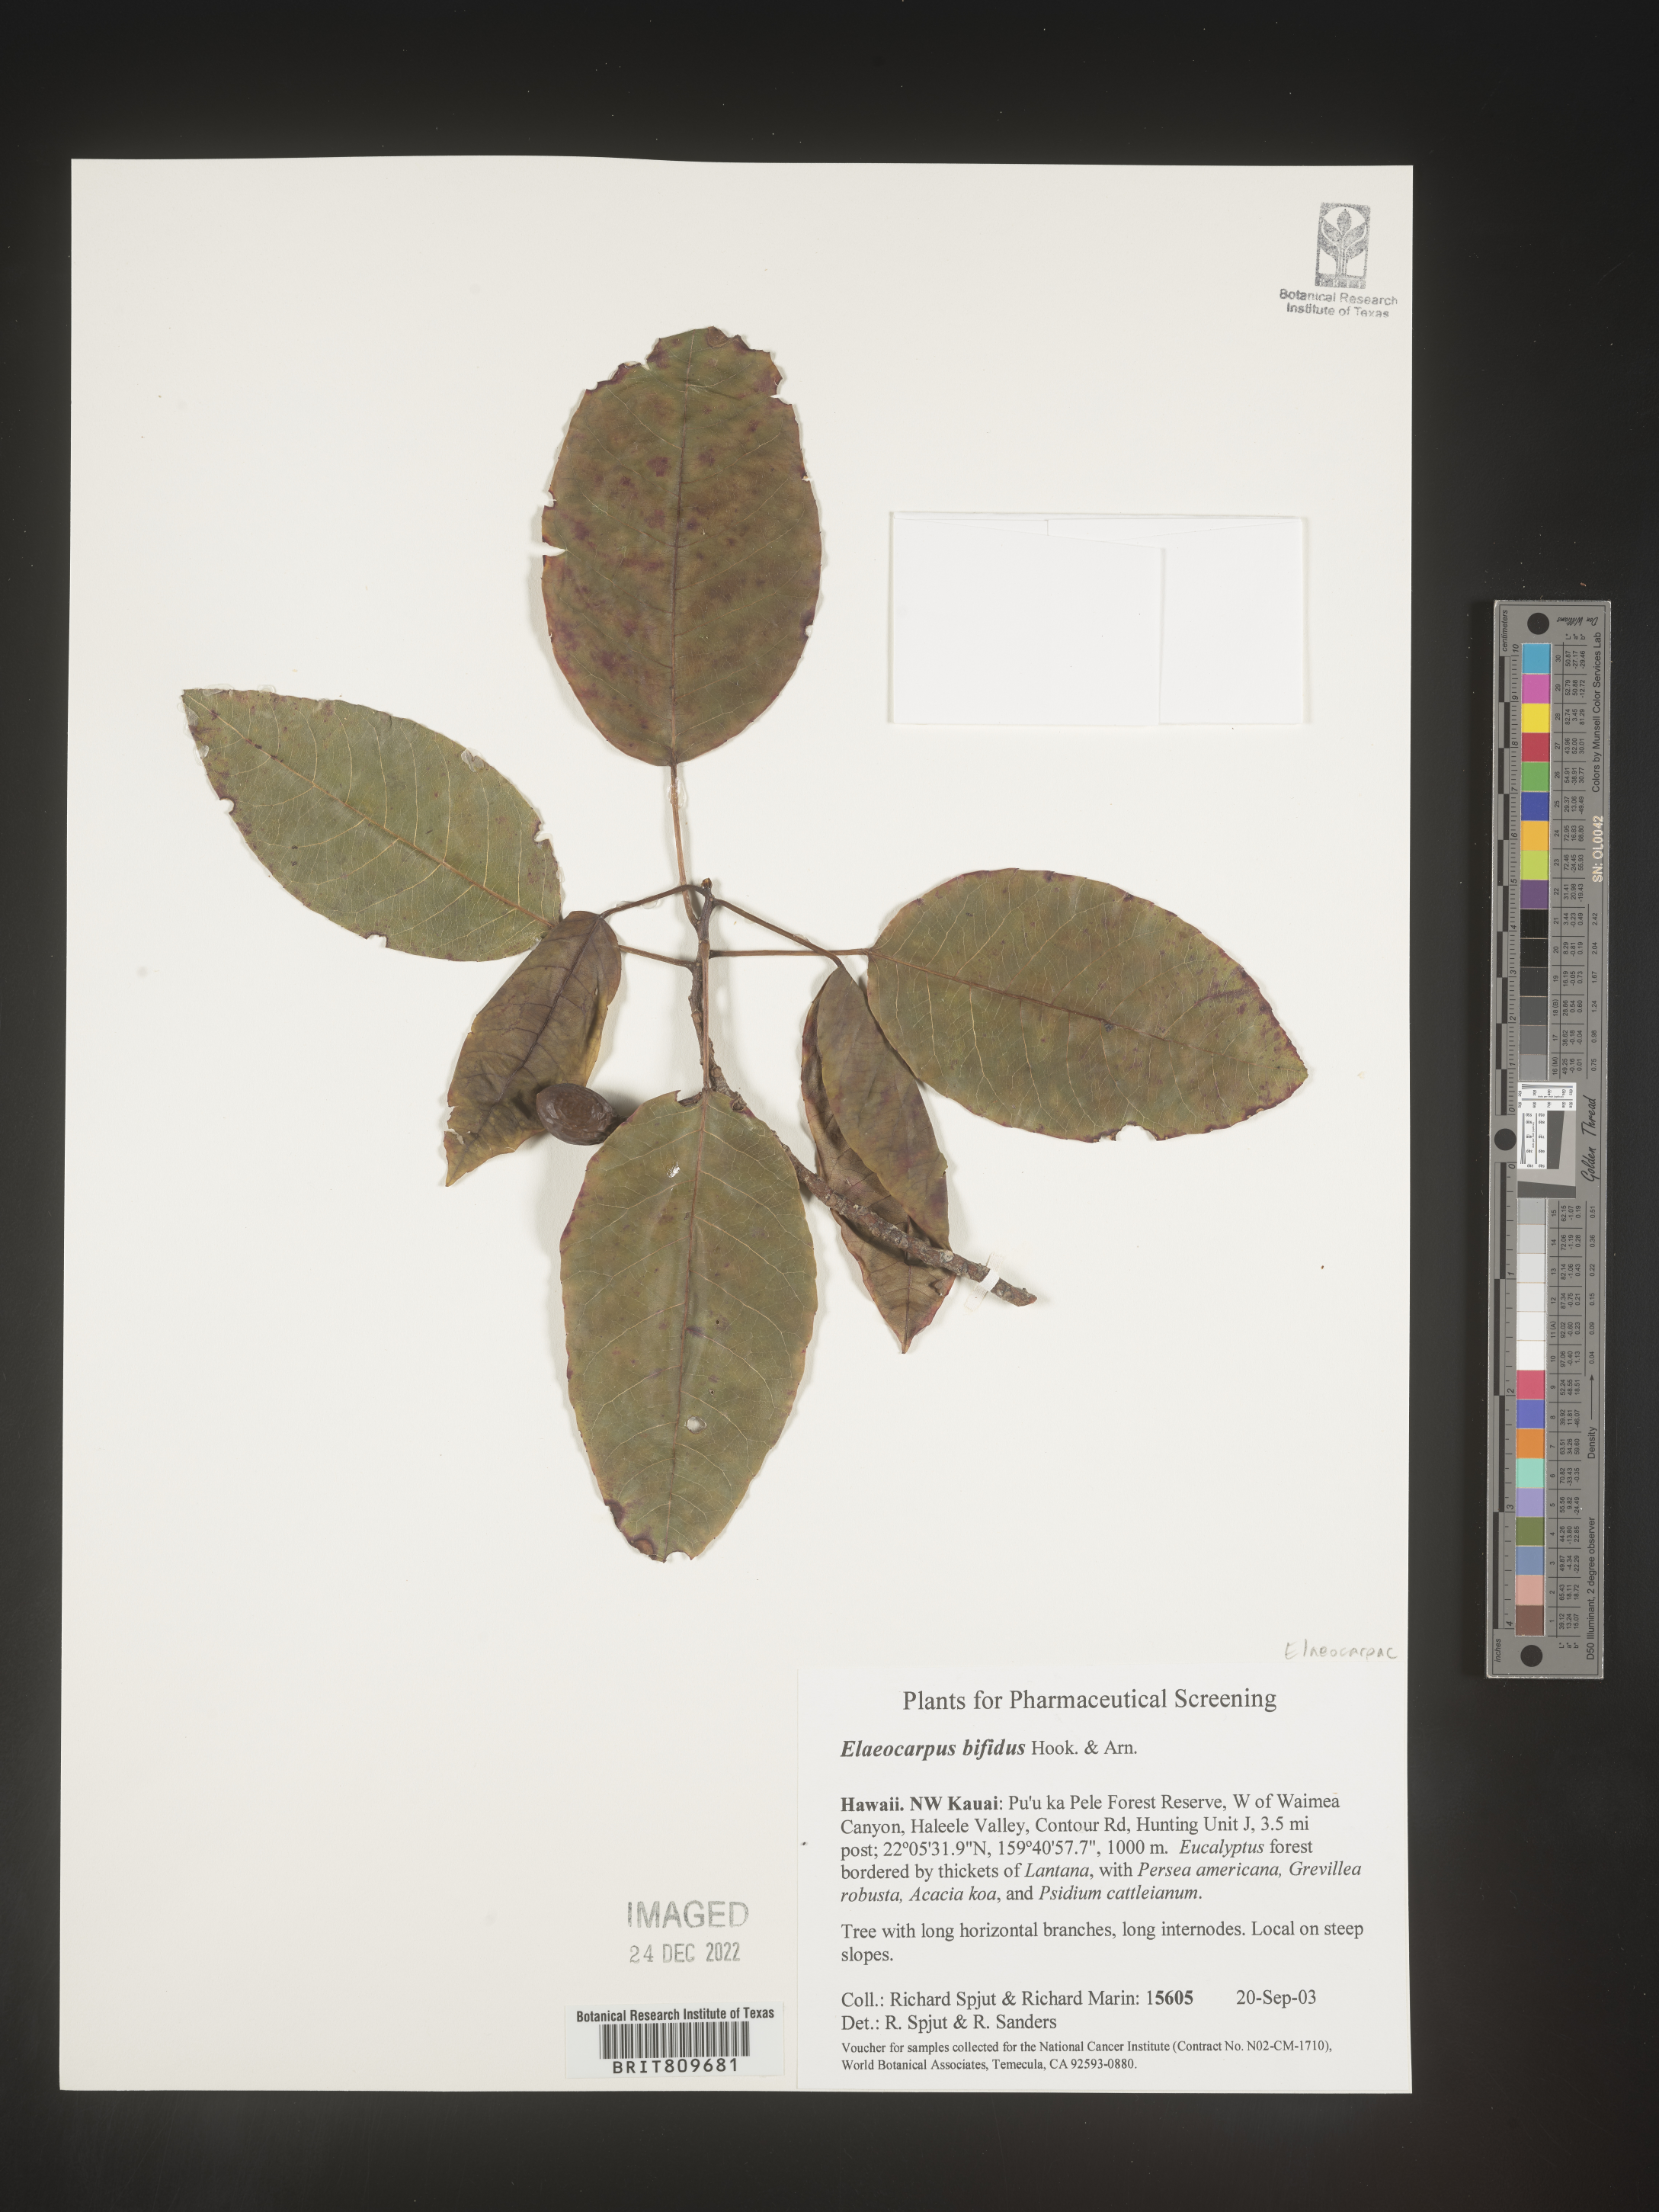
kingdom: Plantae
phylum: Tracheophyta
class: Magnoliopsida
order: Oxalidales
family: Elaeocarpaceae
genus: Elaeocarpus
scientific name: Elaeocarpus
